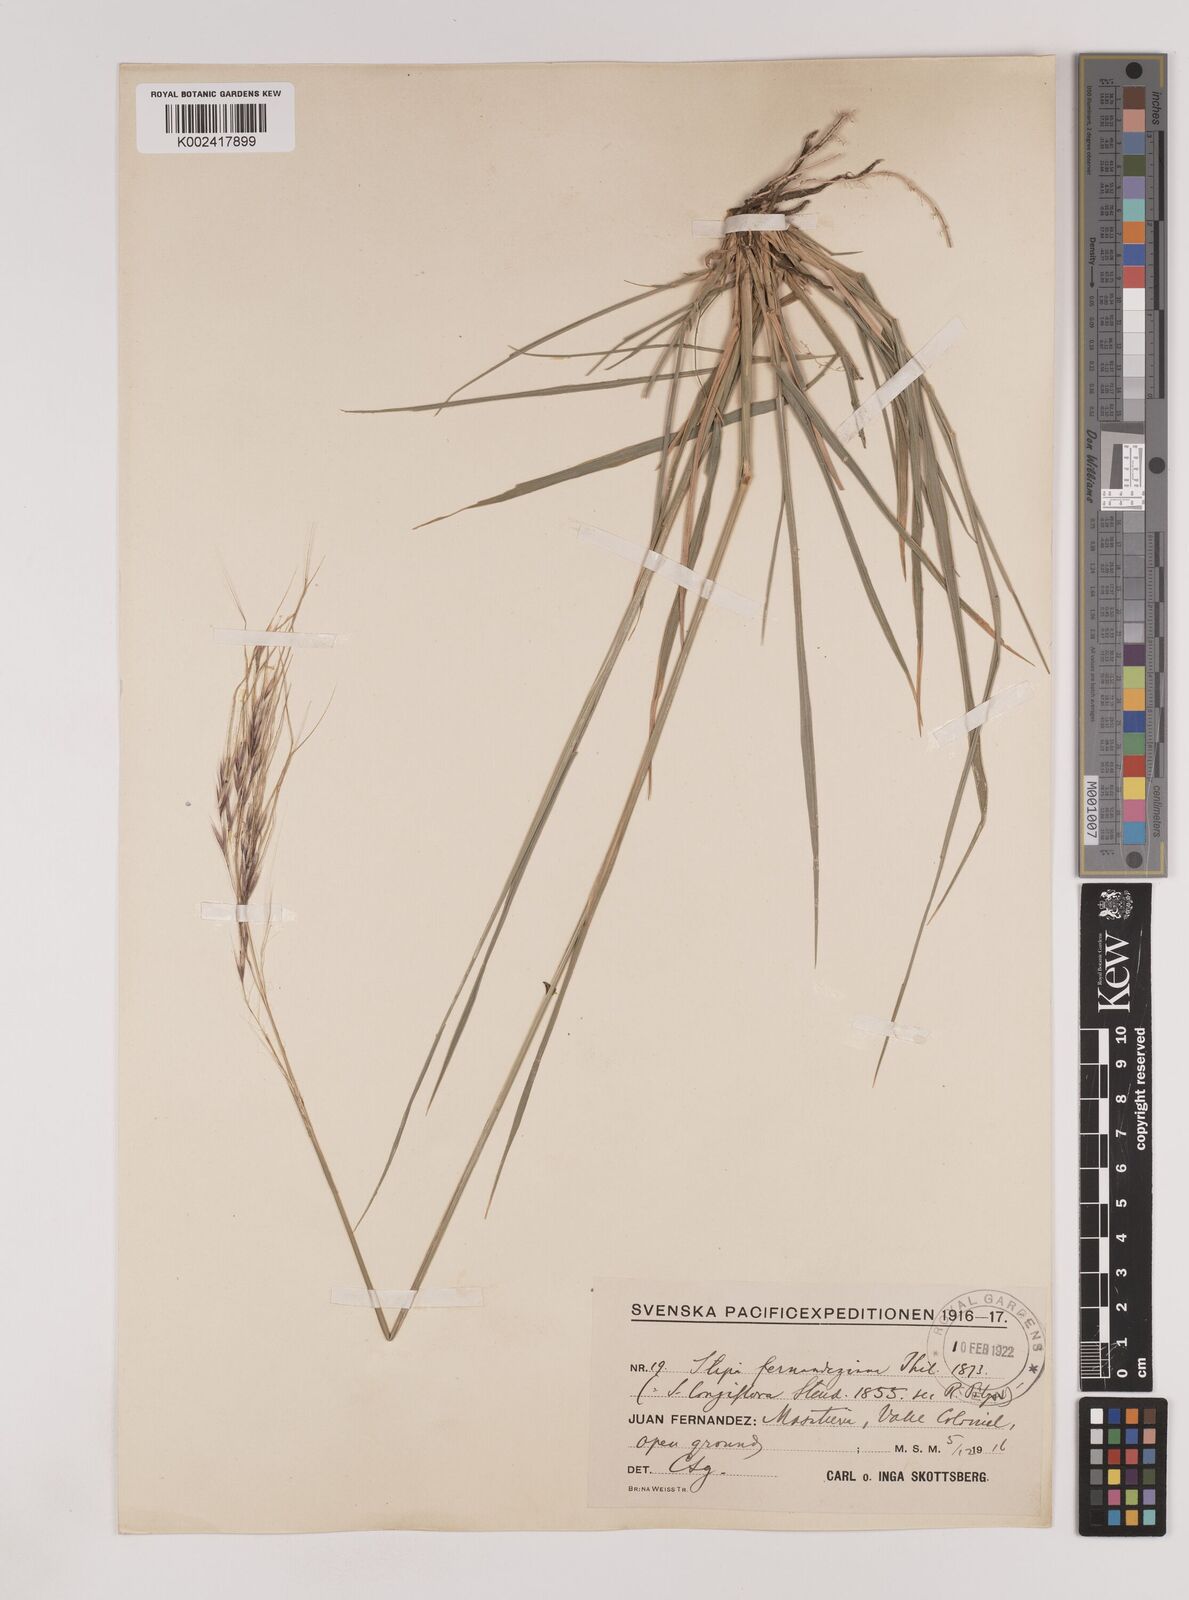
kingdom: Plantae
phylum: Tracheophyta
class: Liliopsida
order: Poales
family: Poaceae
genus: Nassella
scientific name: Nassella neesiana
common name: American needle-grass
